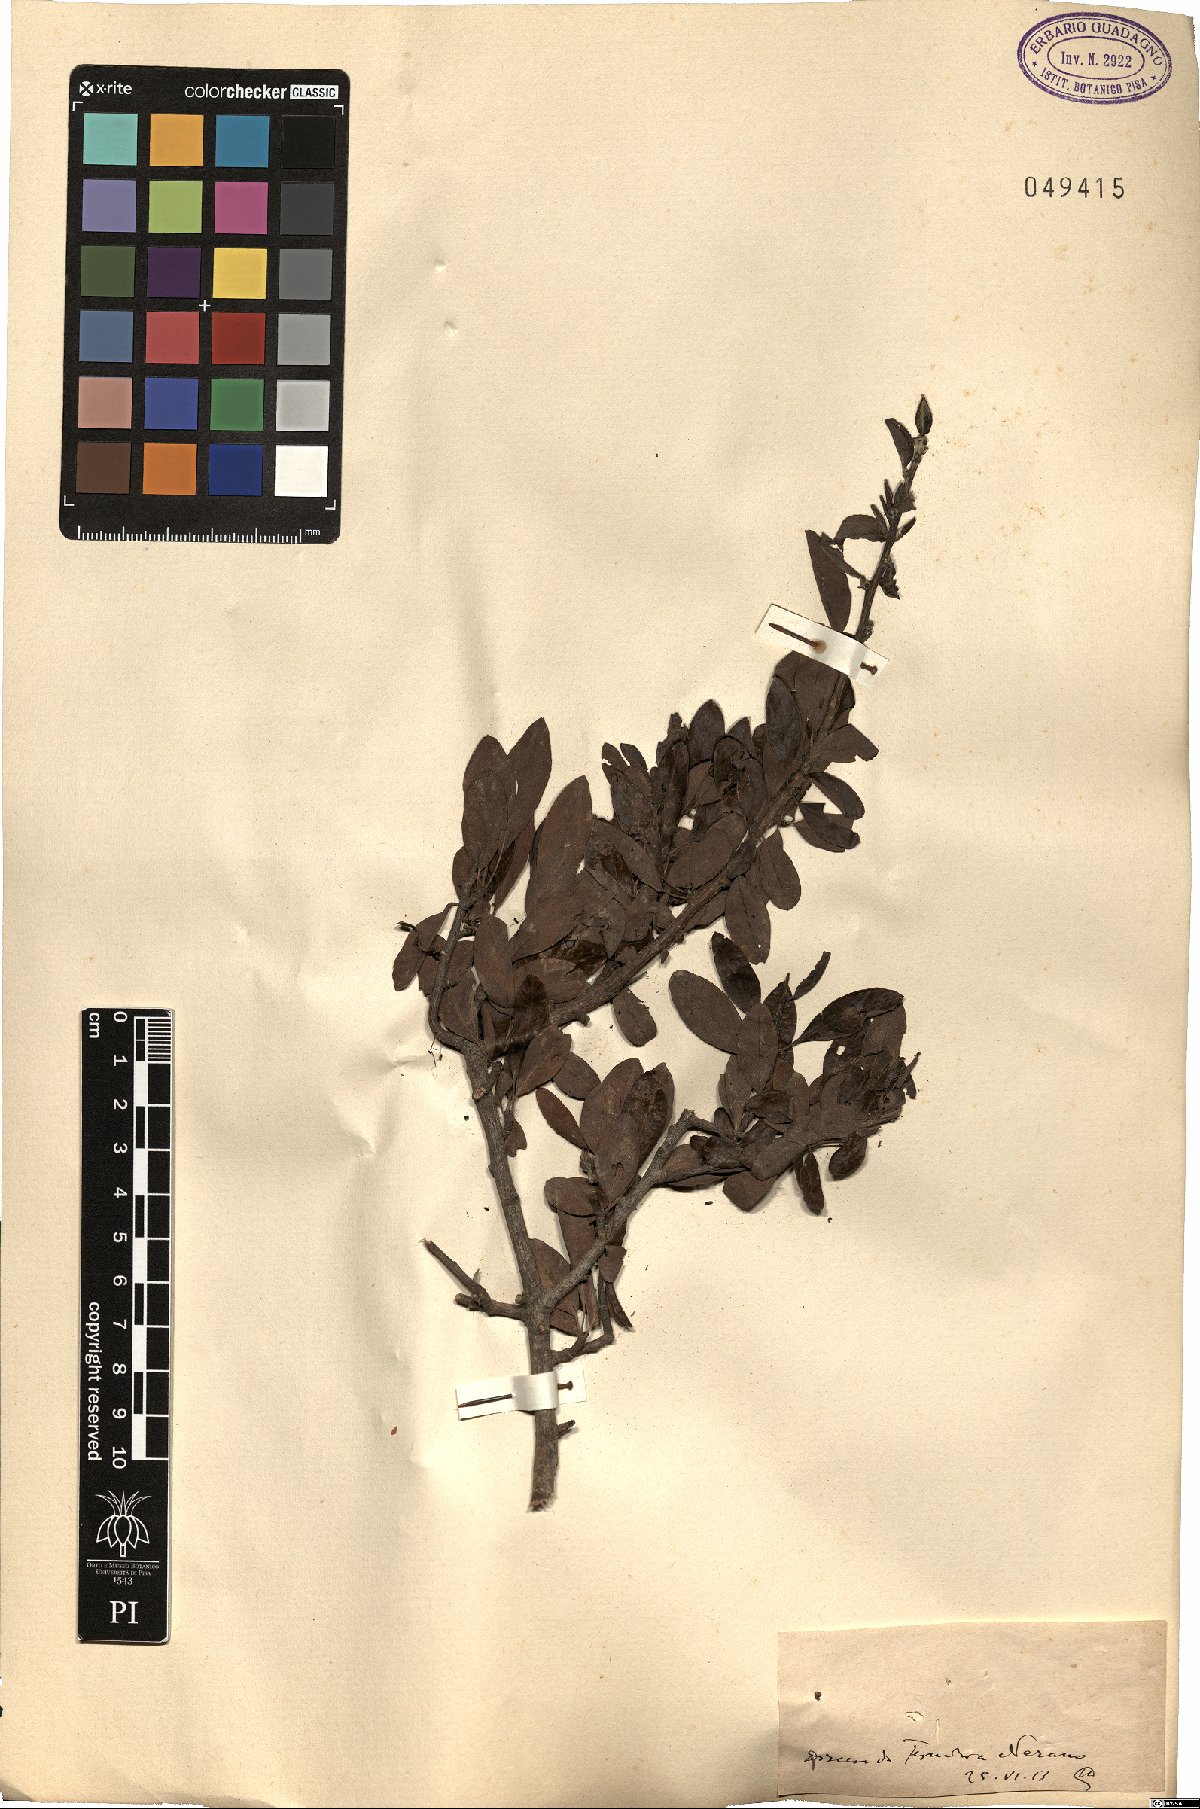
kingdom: Plantae
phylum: Tracheophyta
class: Magnoliopsida
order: Rosales
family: Rosaceae
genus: Pyrus
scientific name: Pyrus
